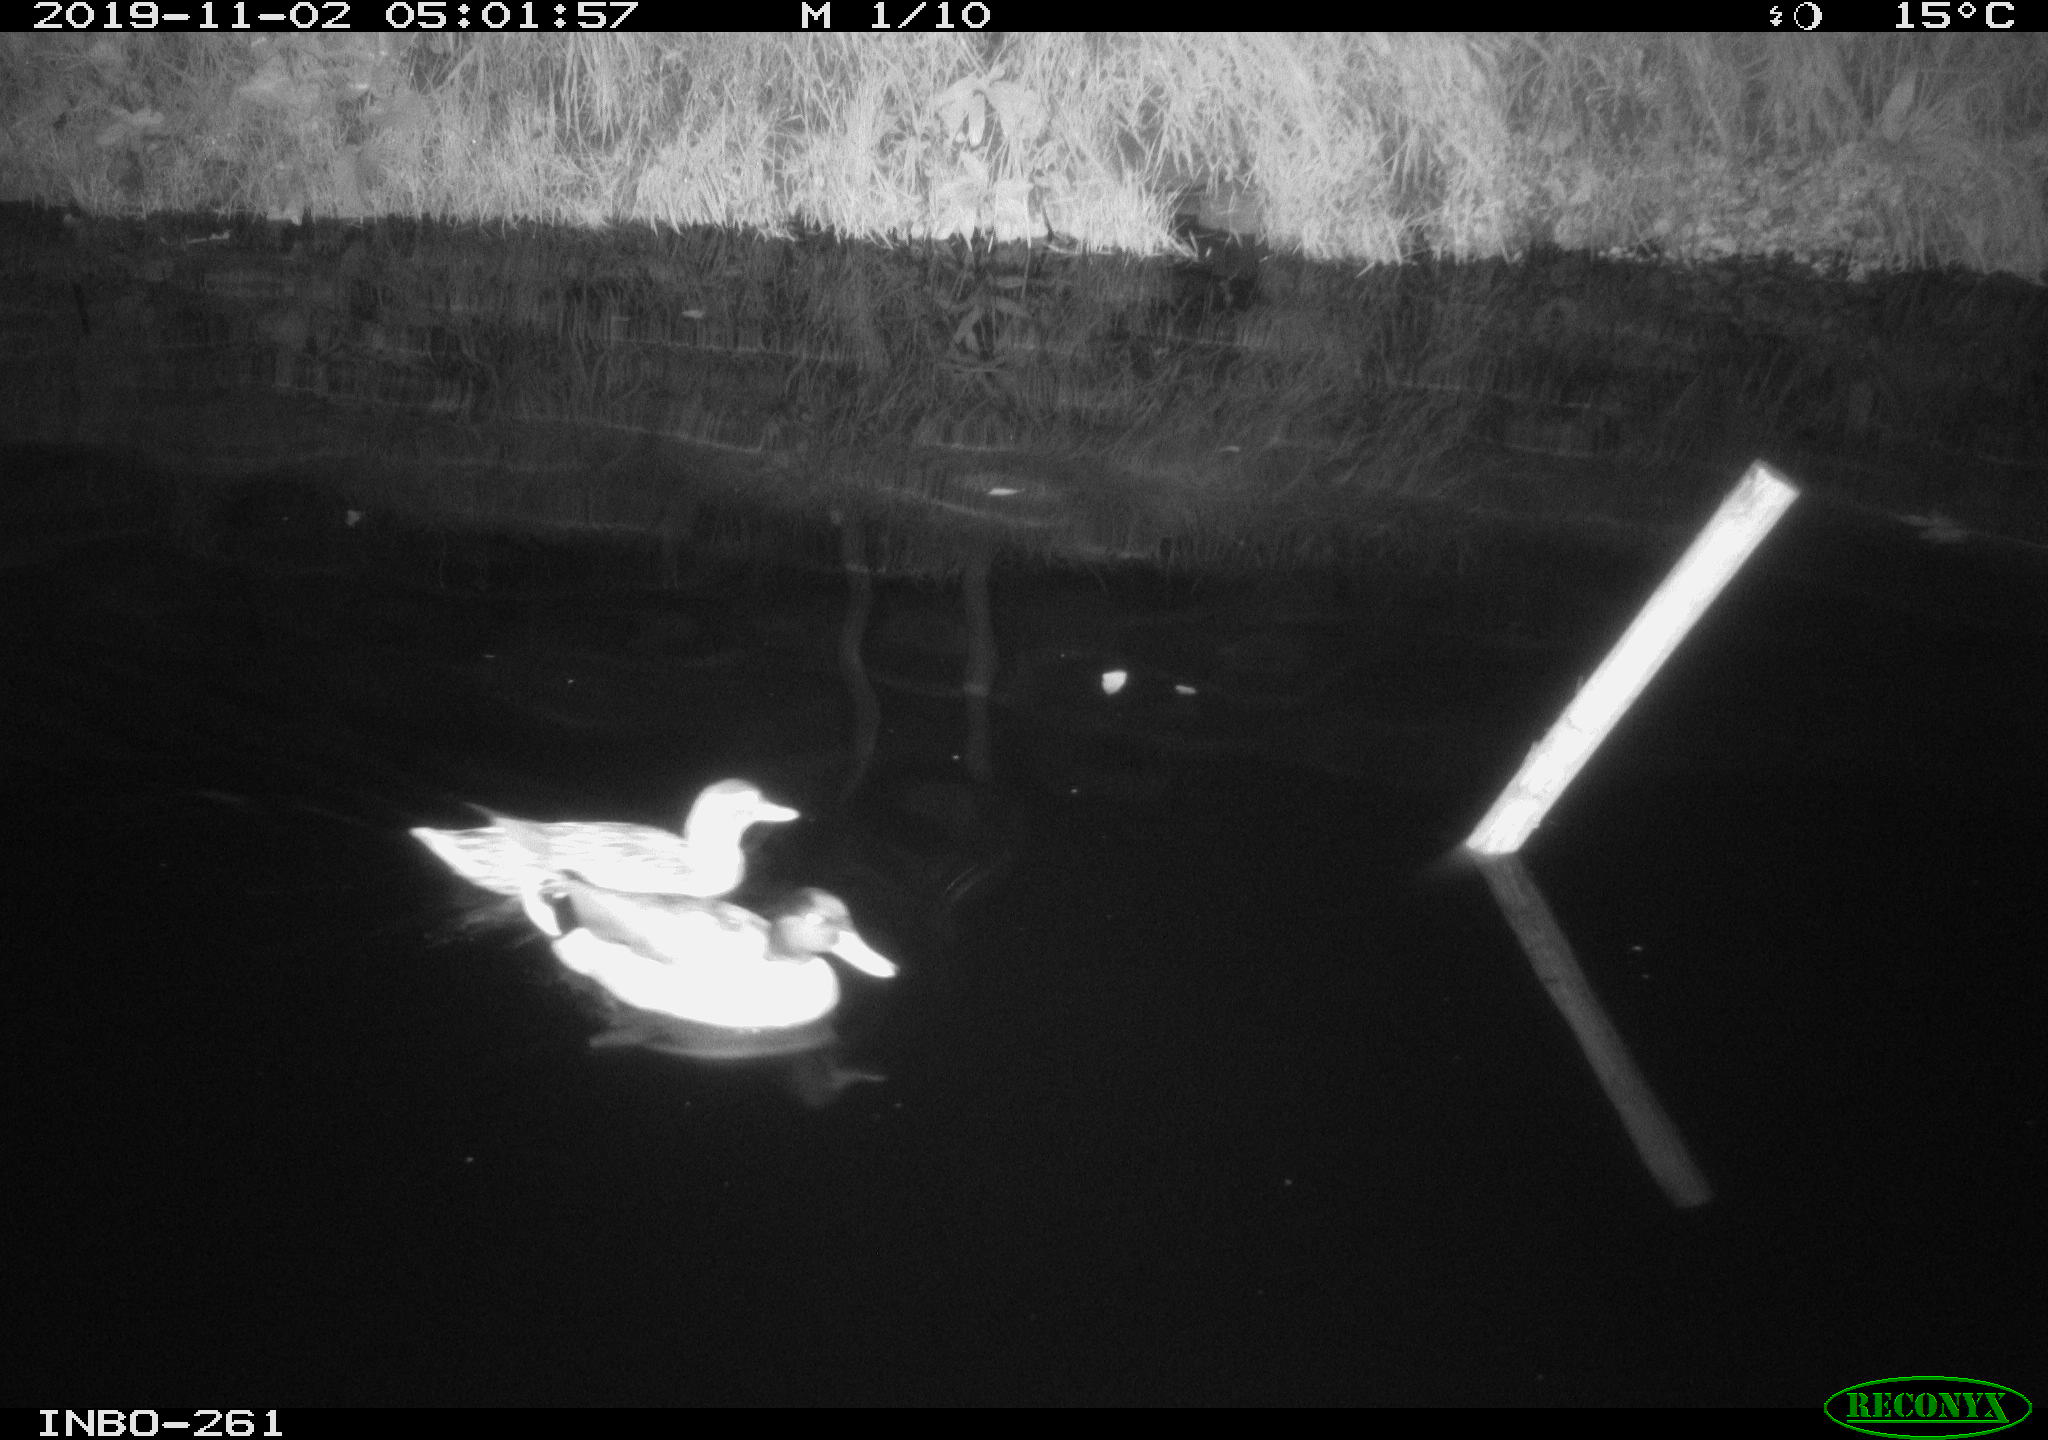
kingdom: Animalia
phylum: Chordata
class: Aves
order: Anseriformes
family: Anatidae
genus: Anas
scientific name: Anas platyrhynchos
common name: Mallard
